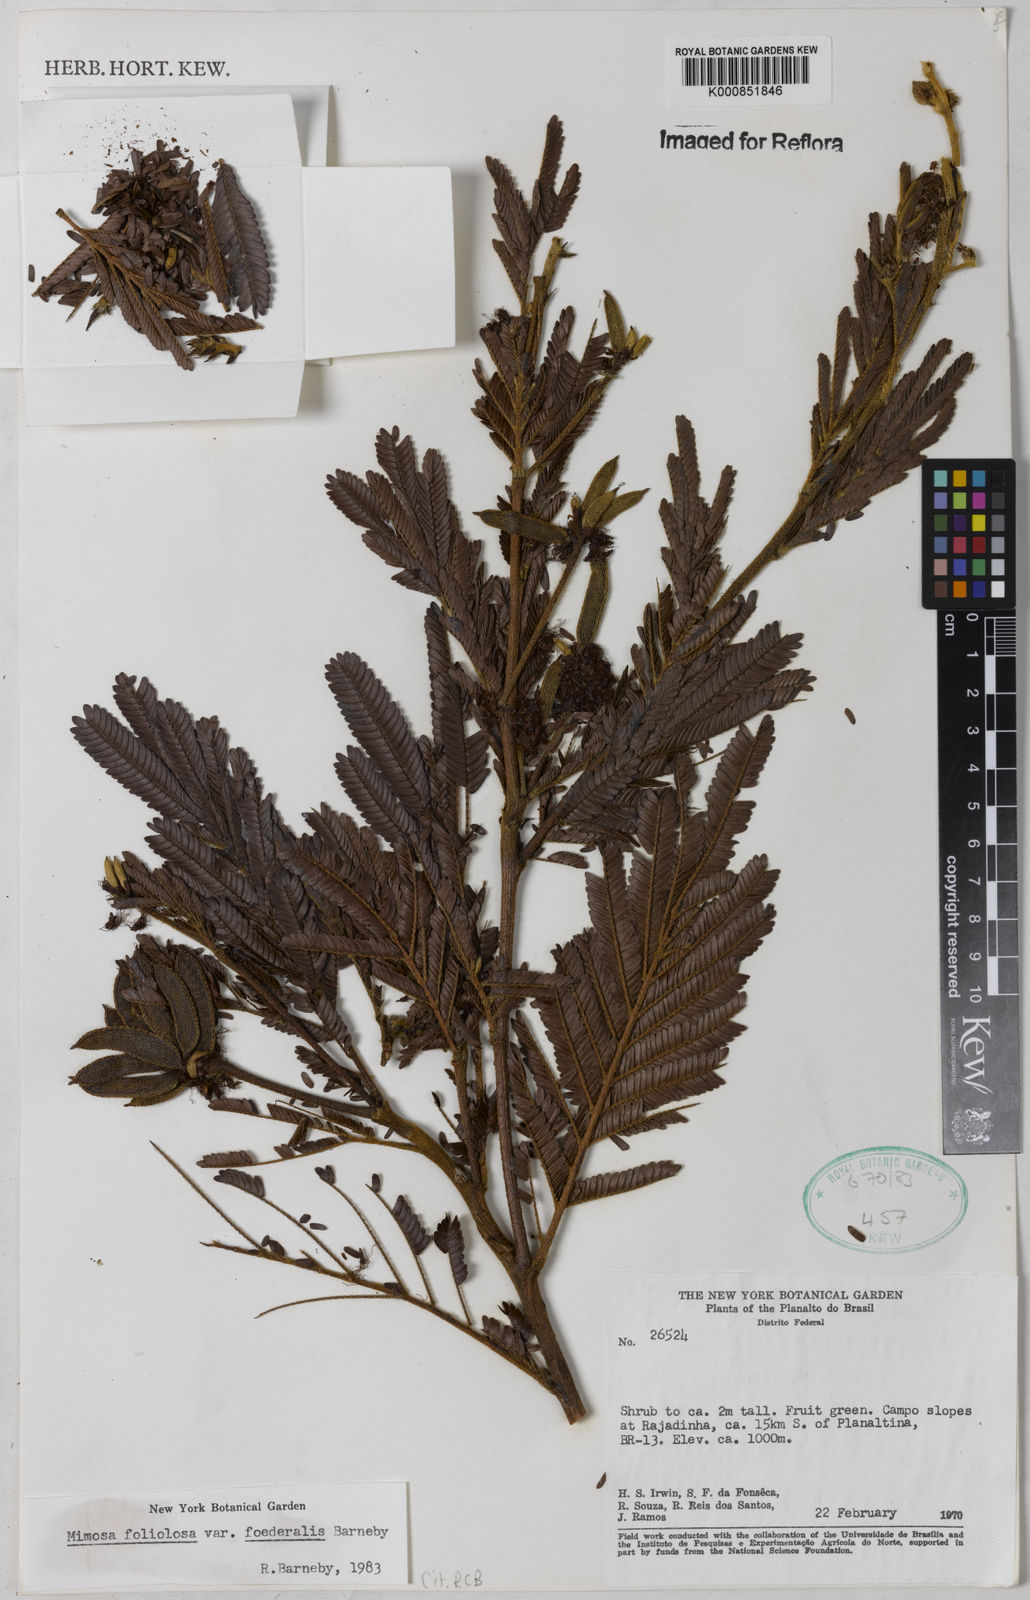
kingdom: Plantae
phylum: Tracheophyta
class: Magnoliopsida
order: Fabales
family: Fabaceae
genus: Mimosa
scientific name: Mimosa foliolosa
